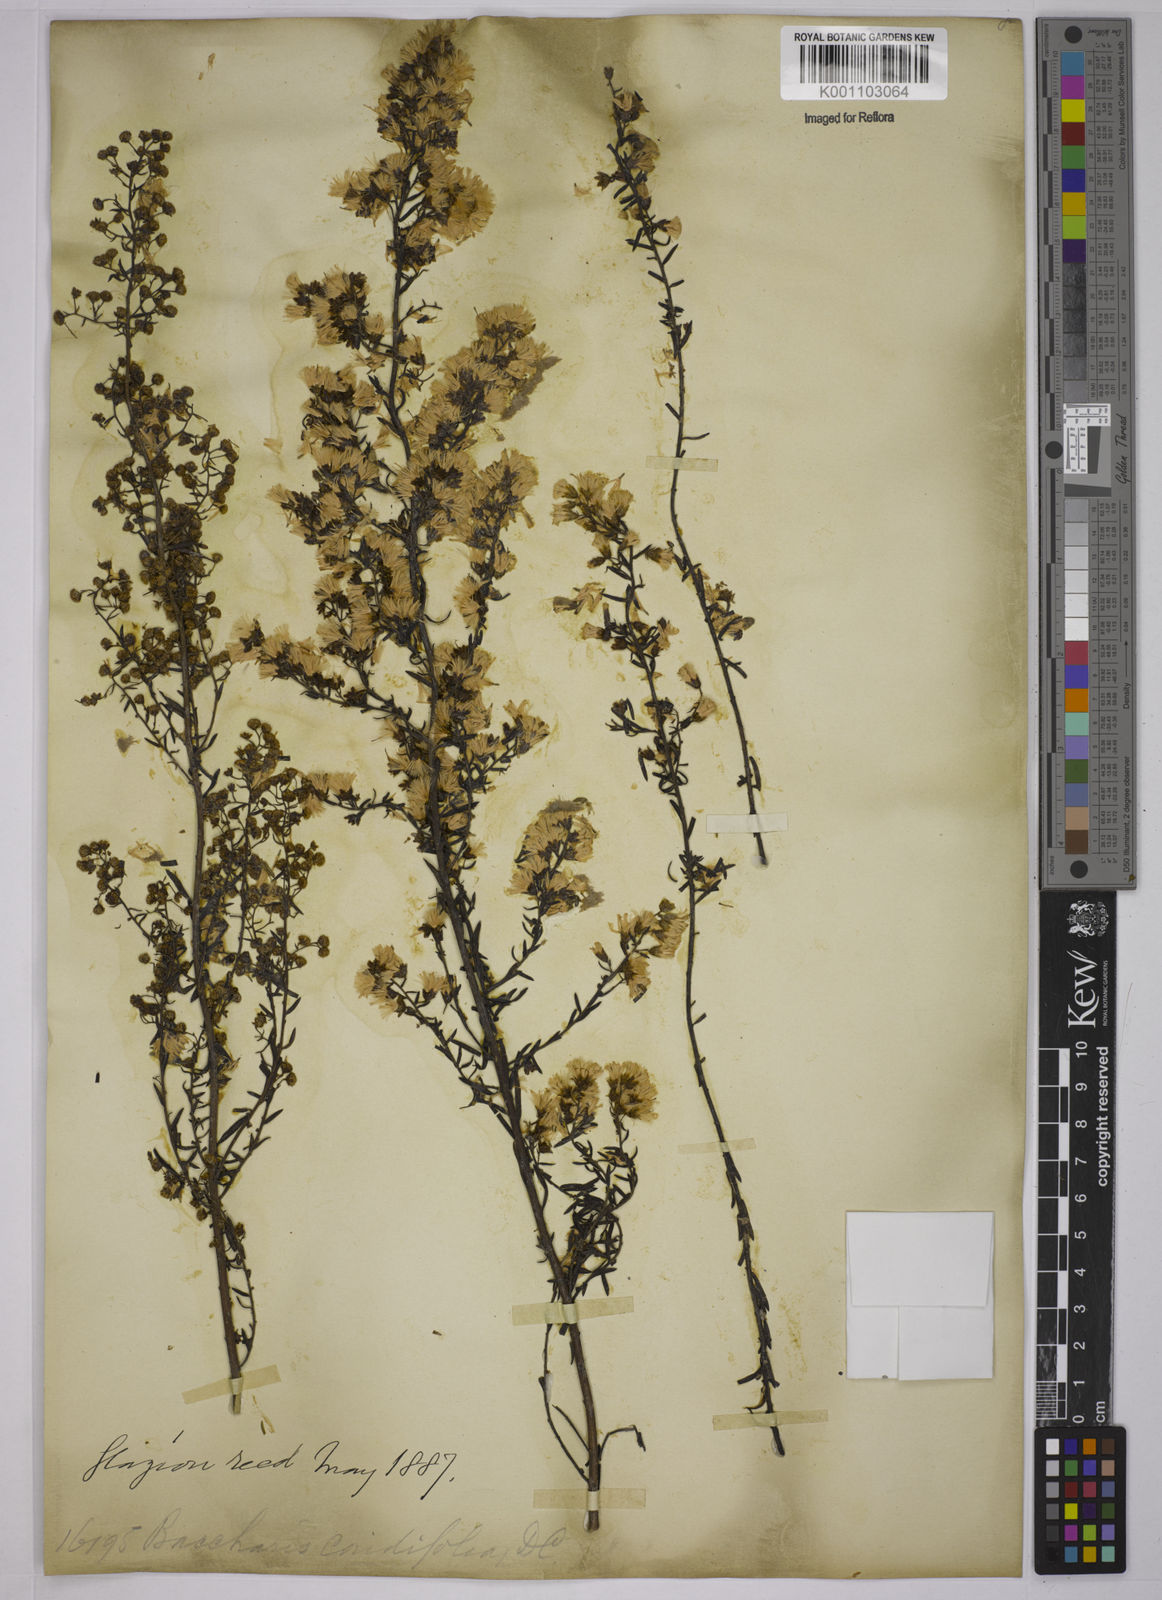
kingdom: Plantae
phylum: Tracheophyta
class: Magnoliopsida
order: Asterales
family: Asteraceae
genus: Baccharis
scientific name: Baccharis coridifolia
